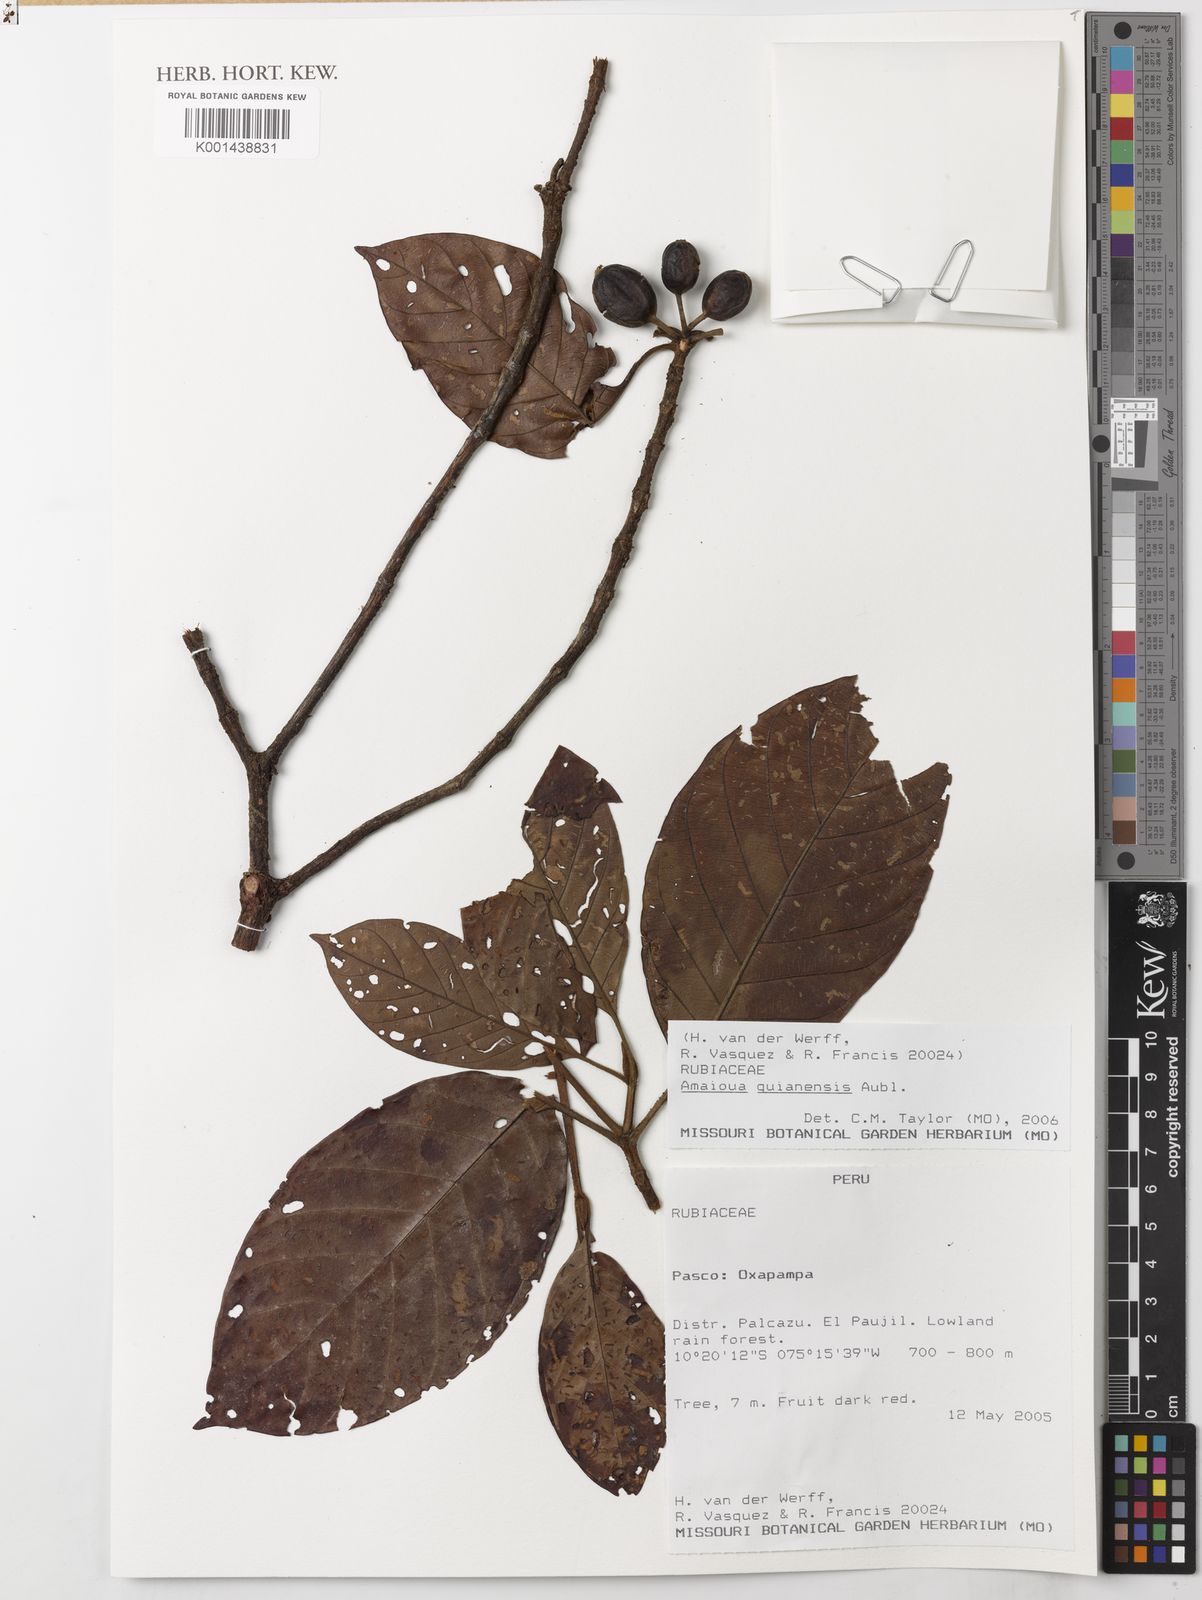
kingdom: Plantae
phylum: Tracheophyta
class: Magnoliopsida
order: Gentianales
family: Rubiaceae
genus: Amaioua
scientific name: Amaioua guianensis
